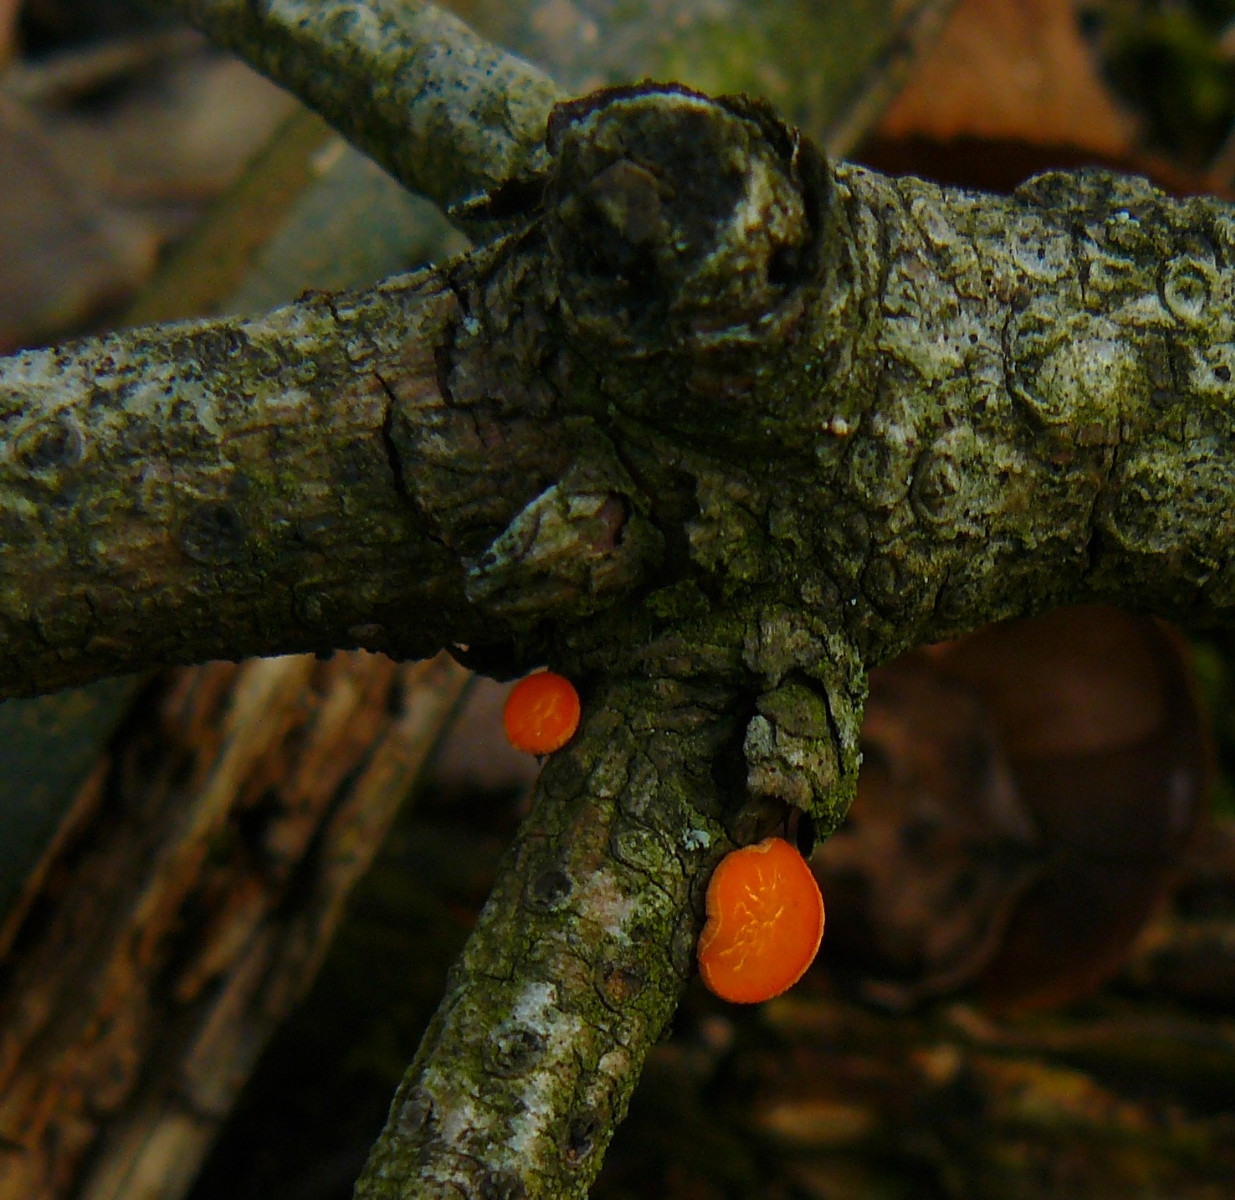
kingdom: Fungi
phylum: Ascomycota
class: Pezizomycetes
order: Pezizales
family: Sarcoscyphaceae
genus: Pithya
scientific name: Pithya vulgaris
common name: stor dukatbæger
